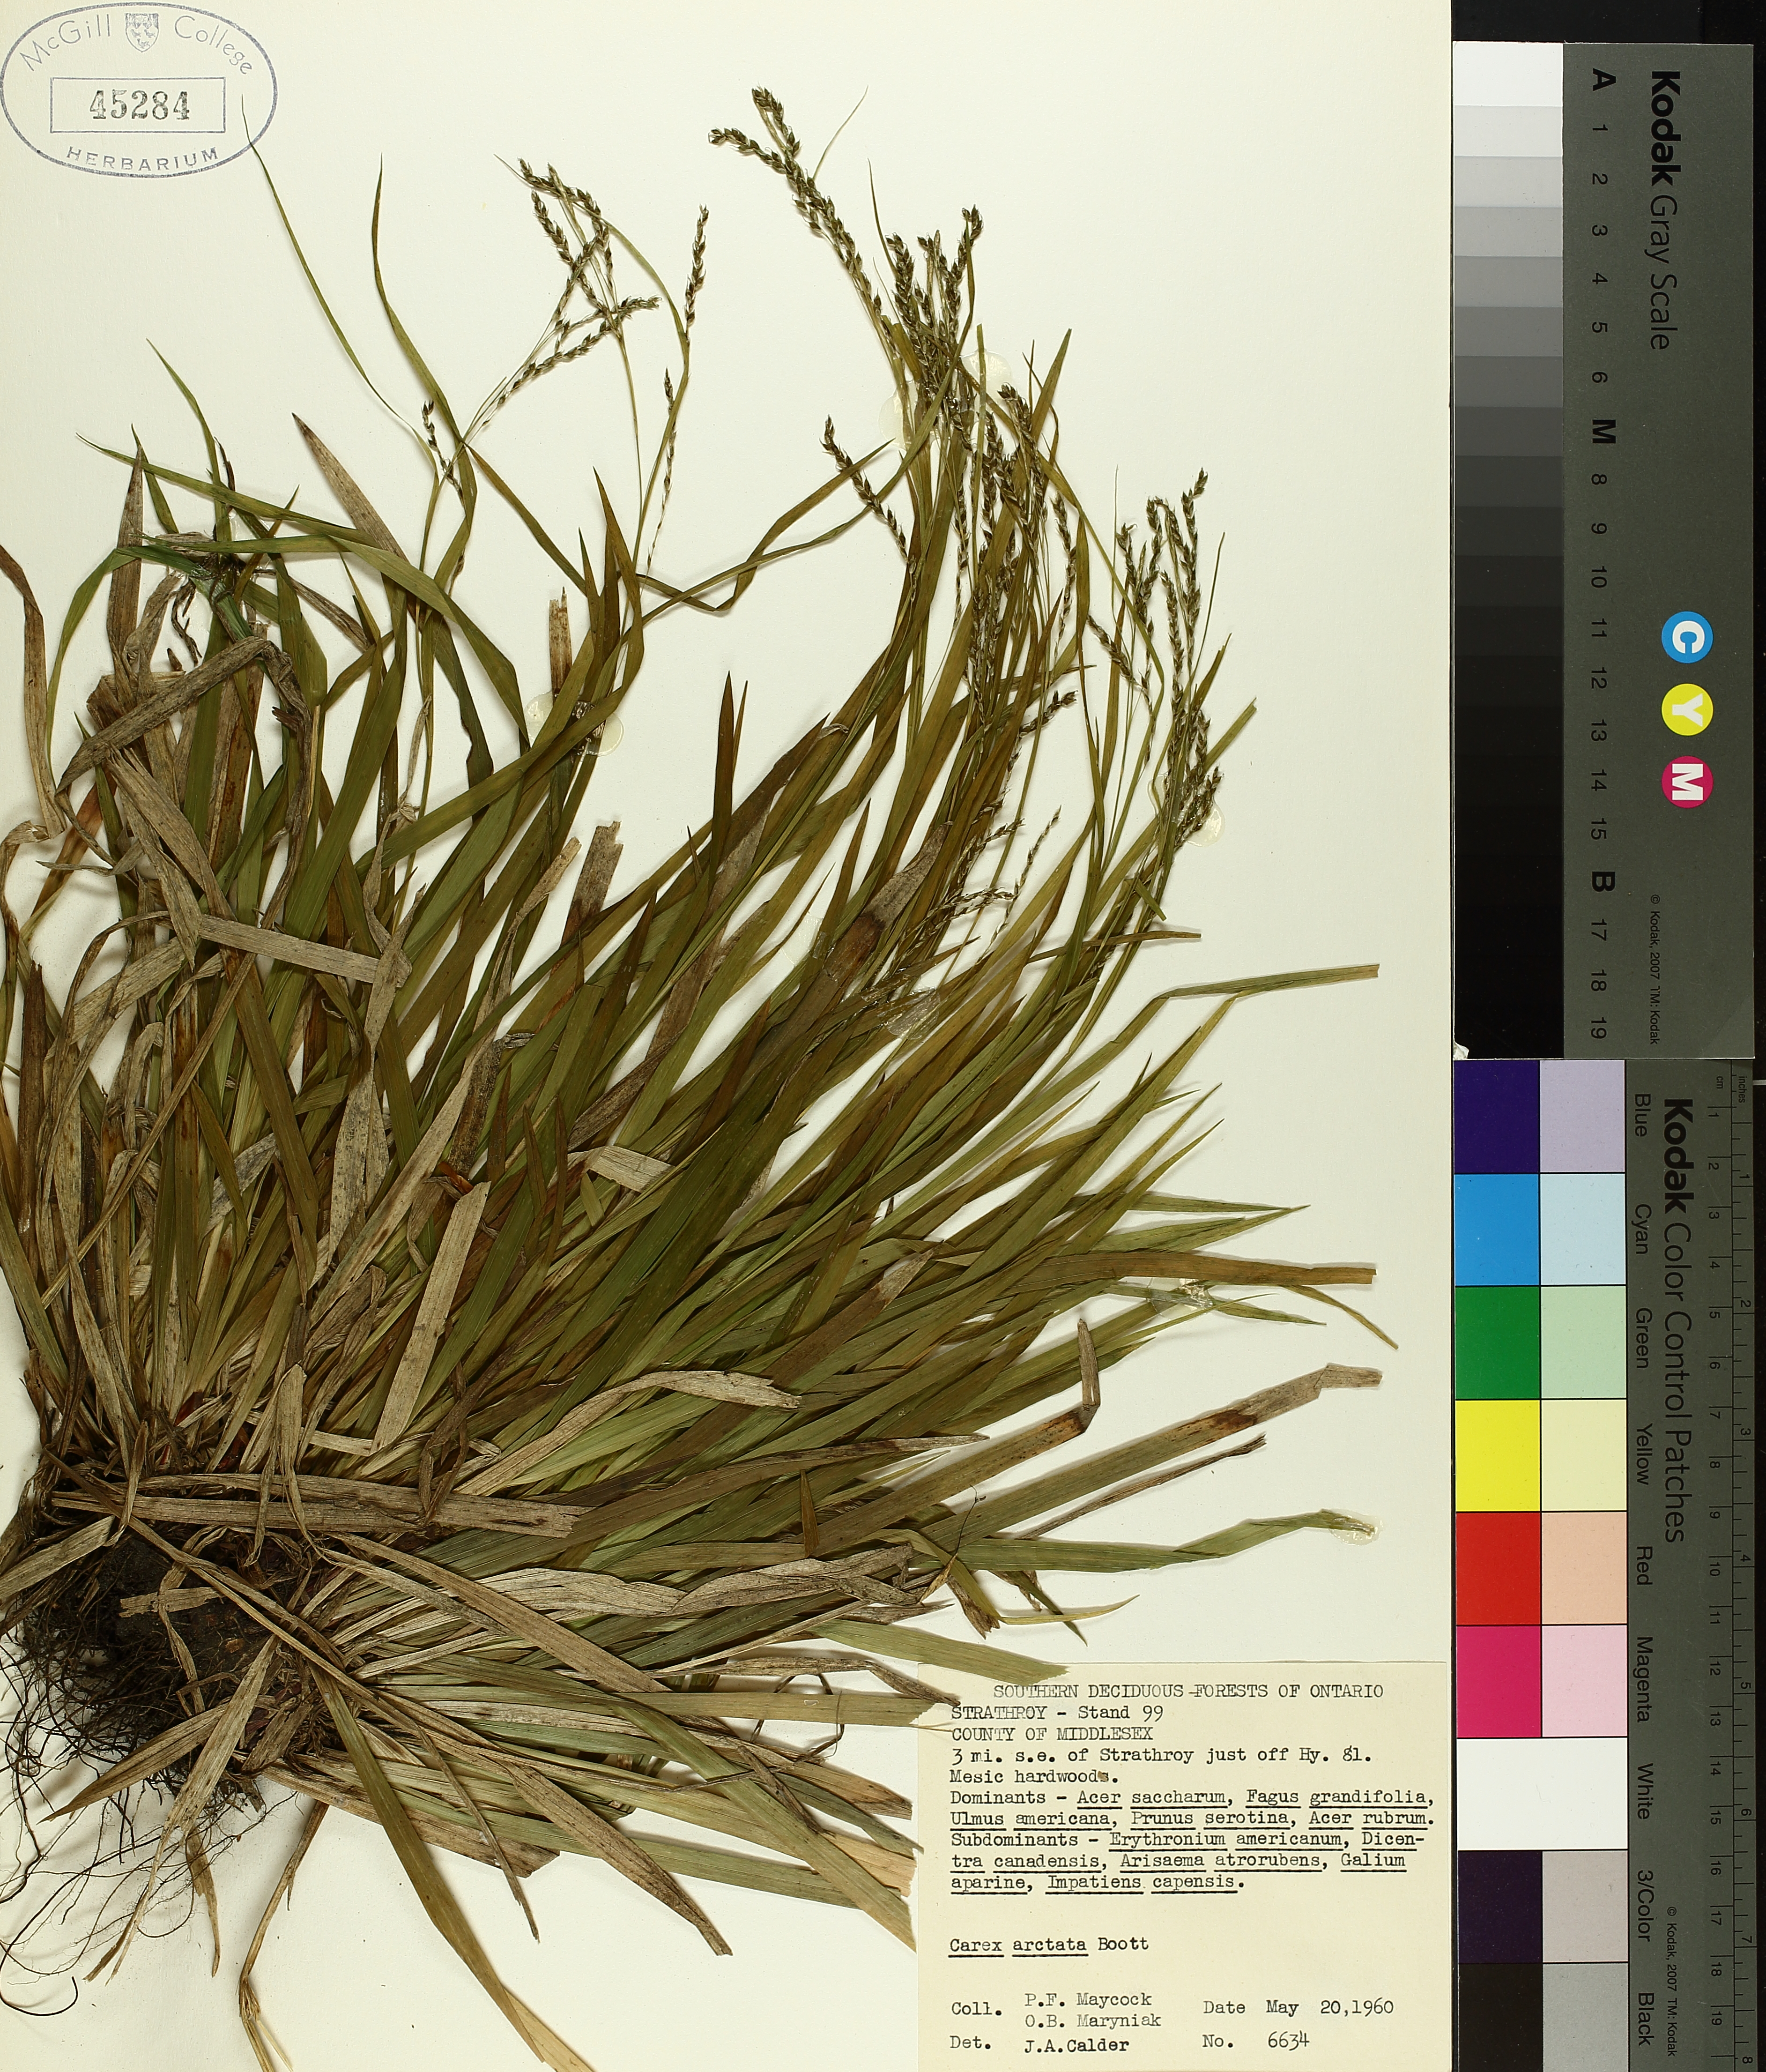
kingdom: Plantae
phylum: Tracheophyta
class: Liliopsida
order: Poales
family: Cyperaceae
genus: Carex
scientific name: Carex arctata
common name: Black sedge
